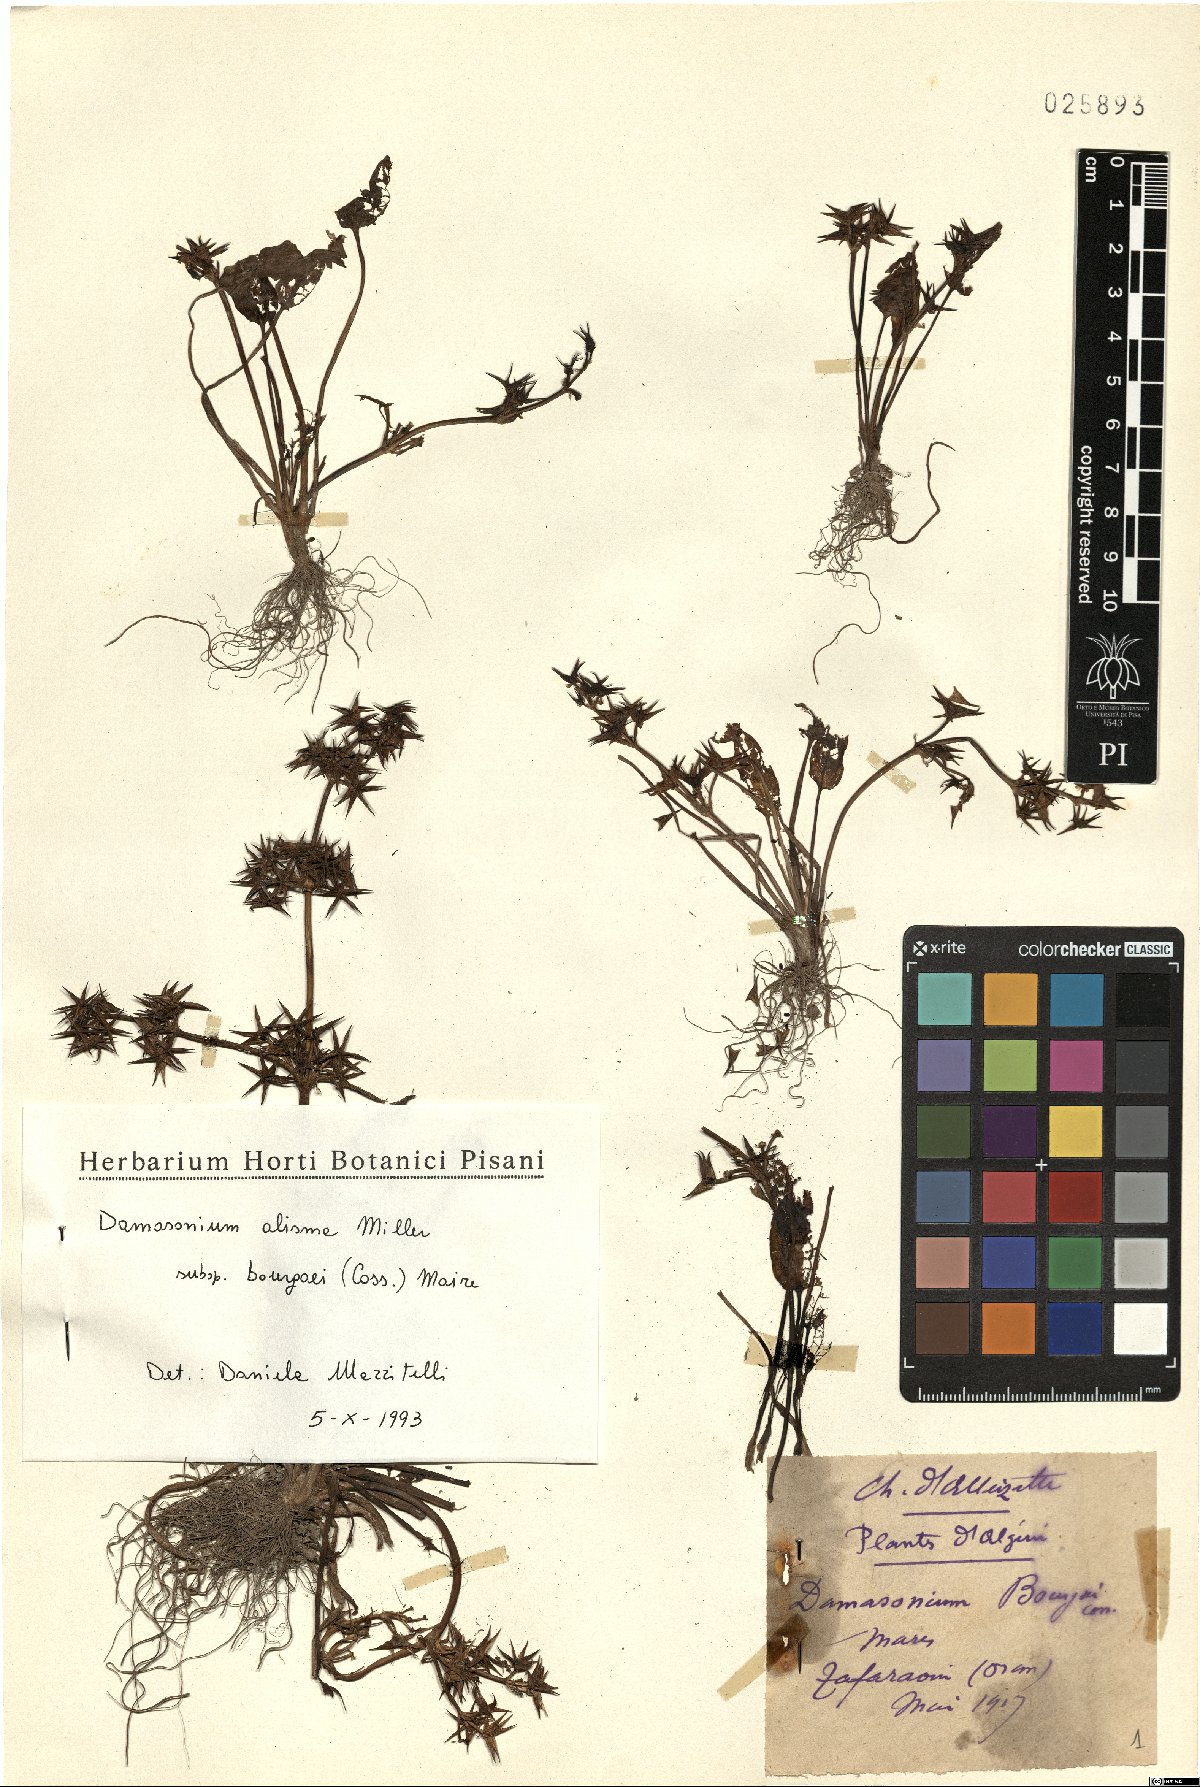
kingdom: Plantae
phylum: Tracheophyta
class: Liliopsida
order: Alismatales
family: Alismataceae
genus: Damasonium
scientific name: Damasonium bourgaei
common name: Starfruit
